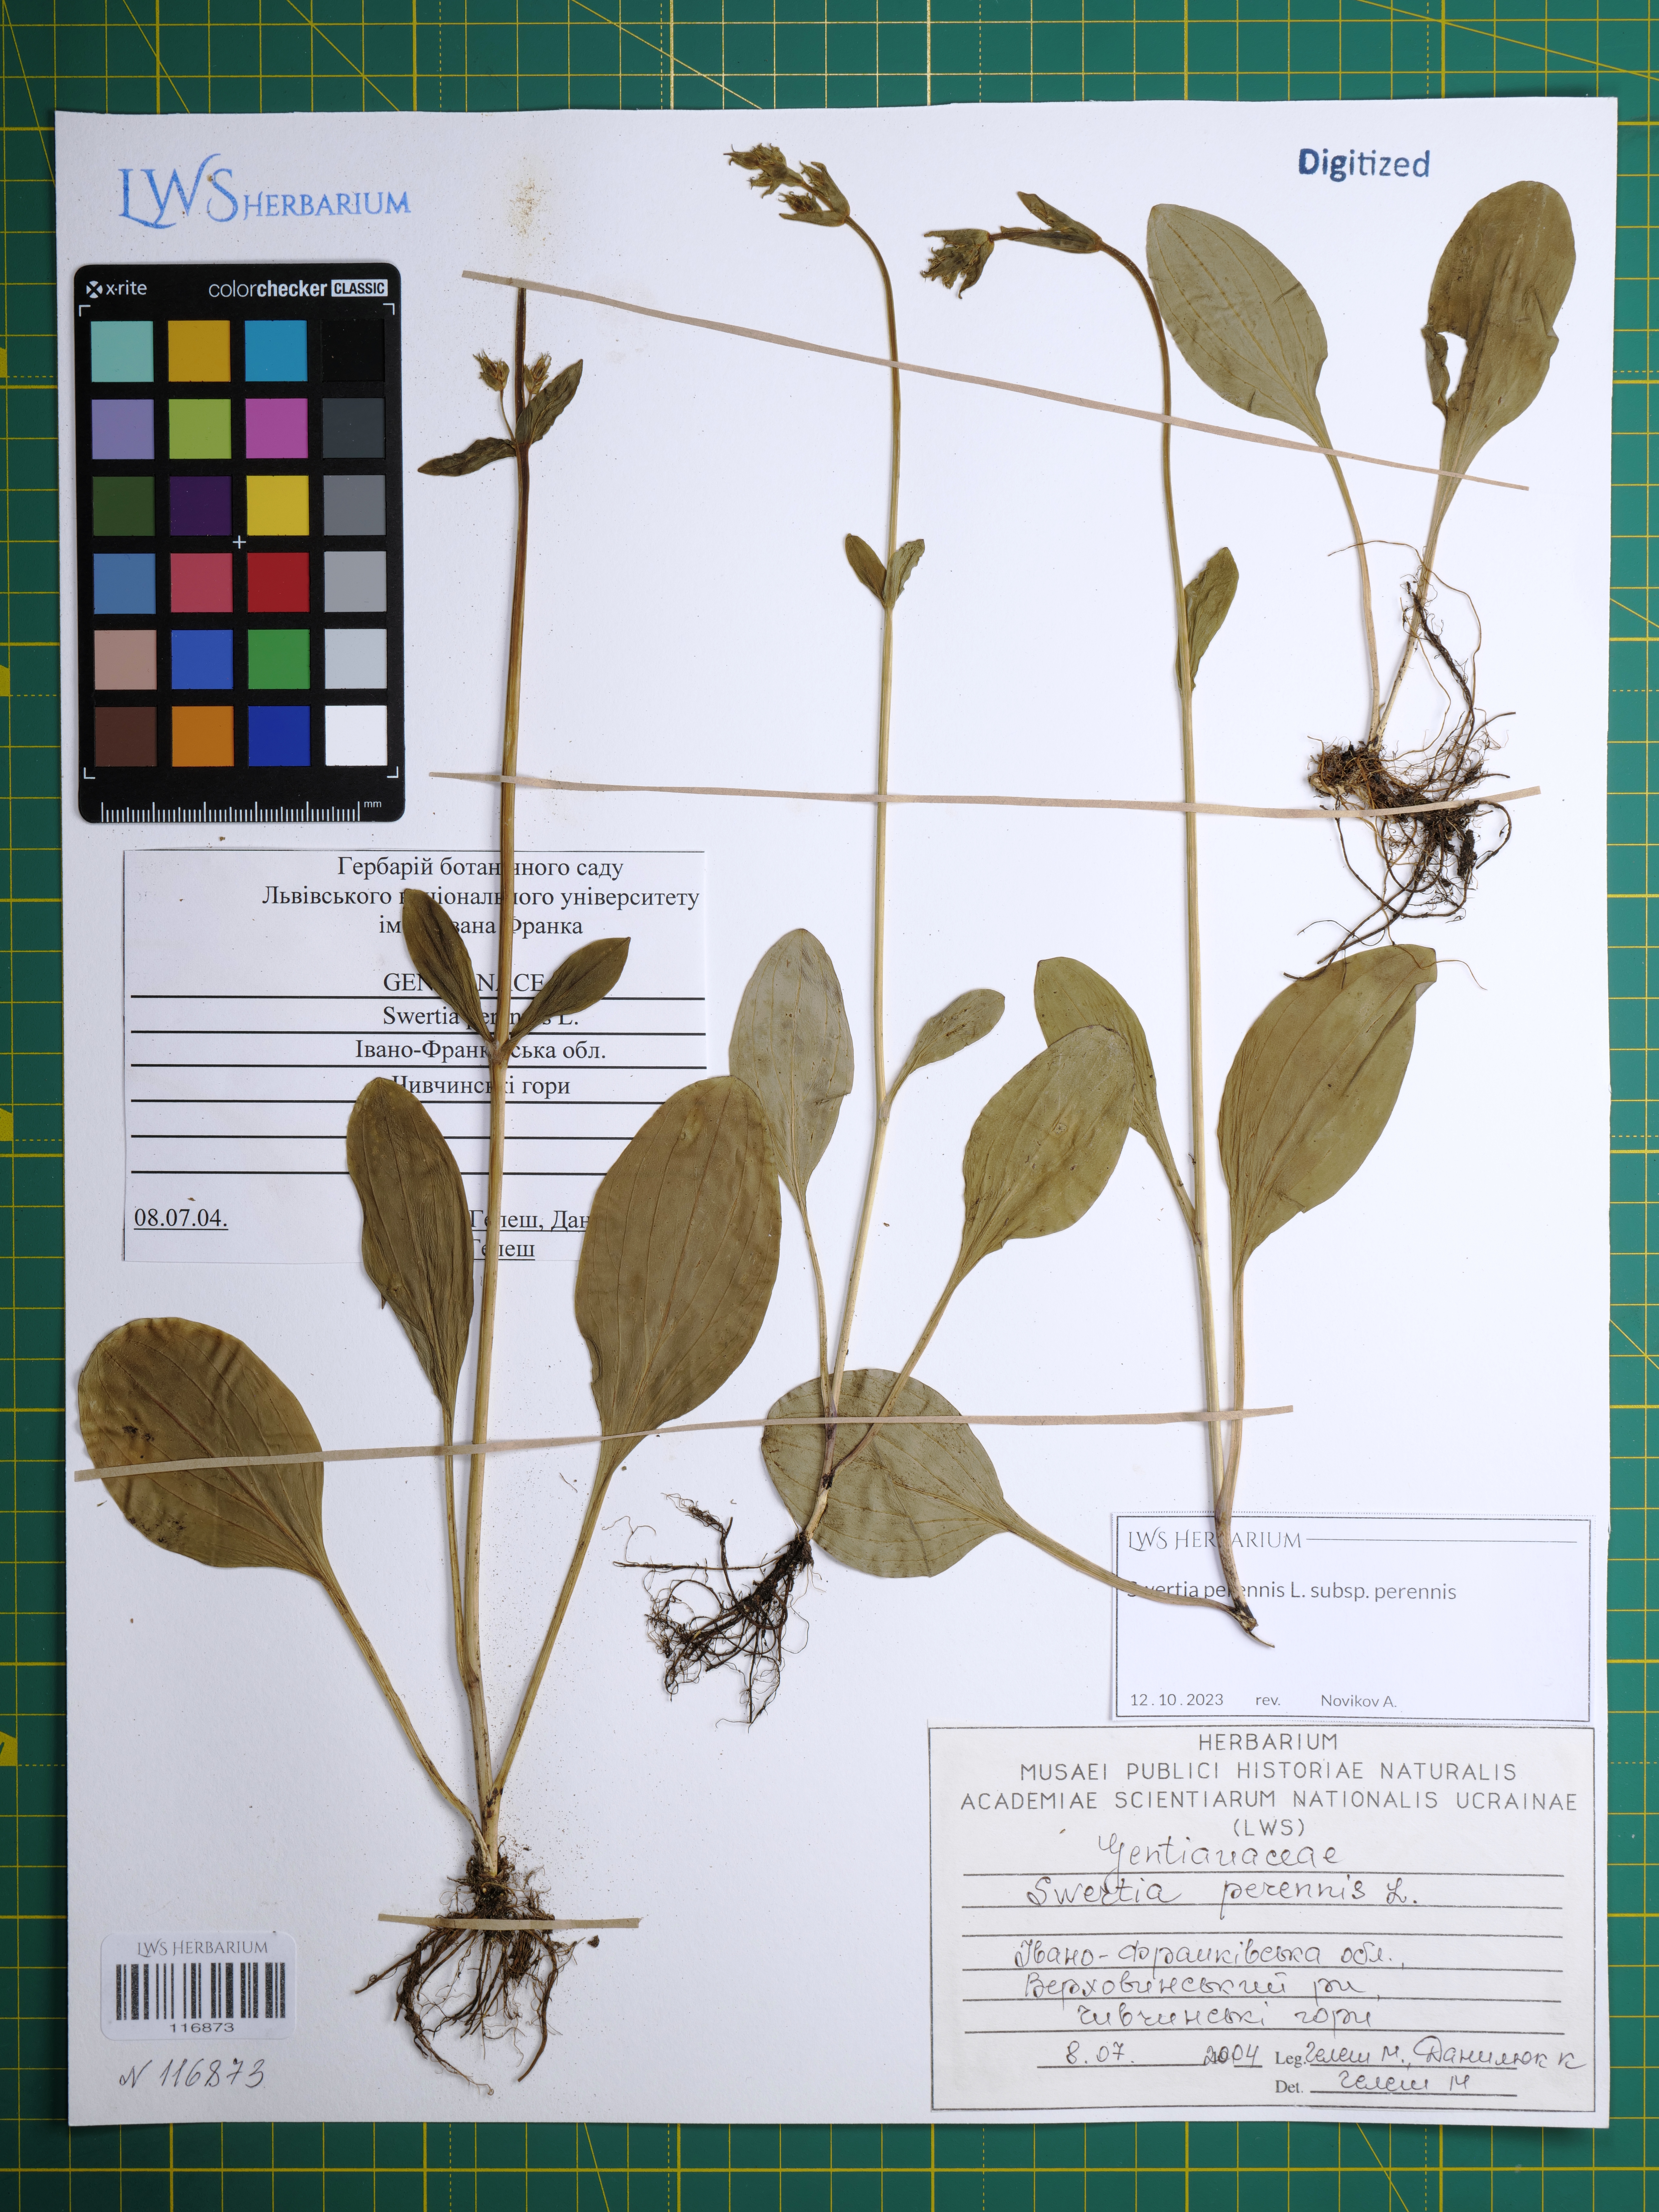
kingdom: Plantae
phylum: Tracheophyta
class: Magnoliopsida
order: Gentianales
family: Gentianaceae
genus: Swertia
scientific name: Swertia perennis
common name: Alpine bog swertia
